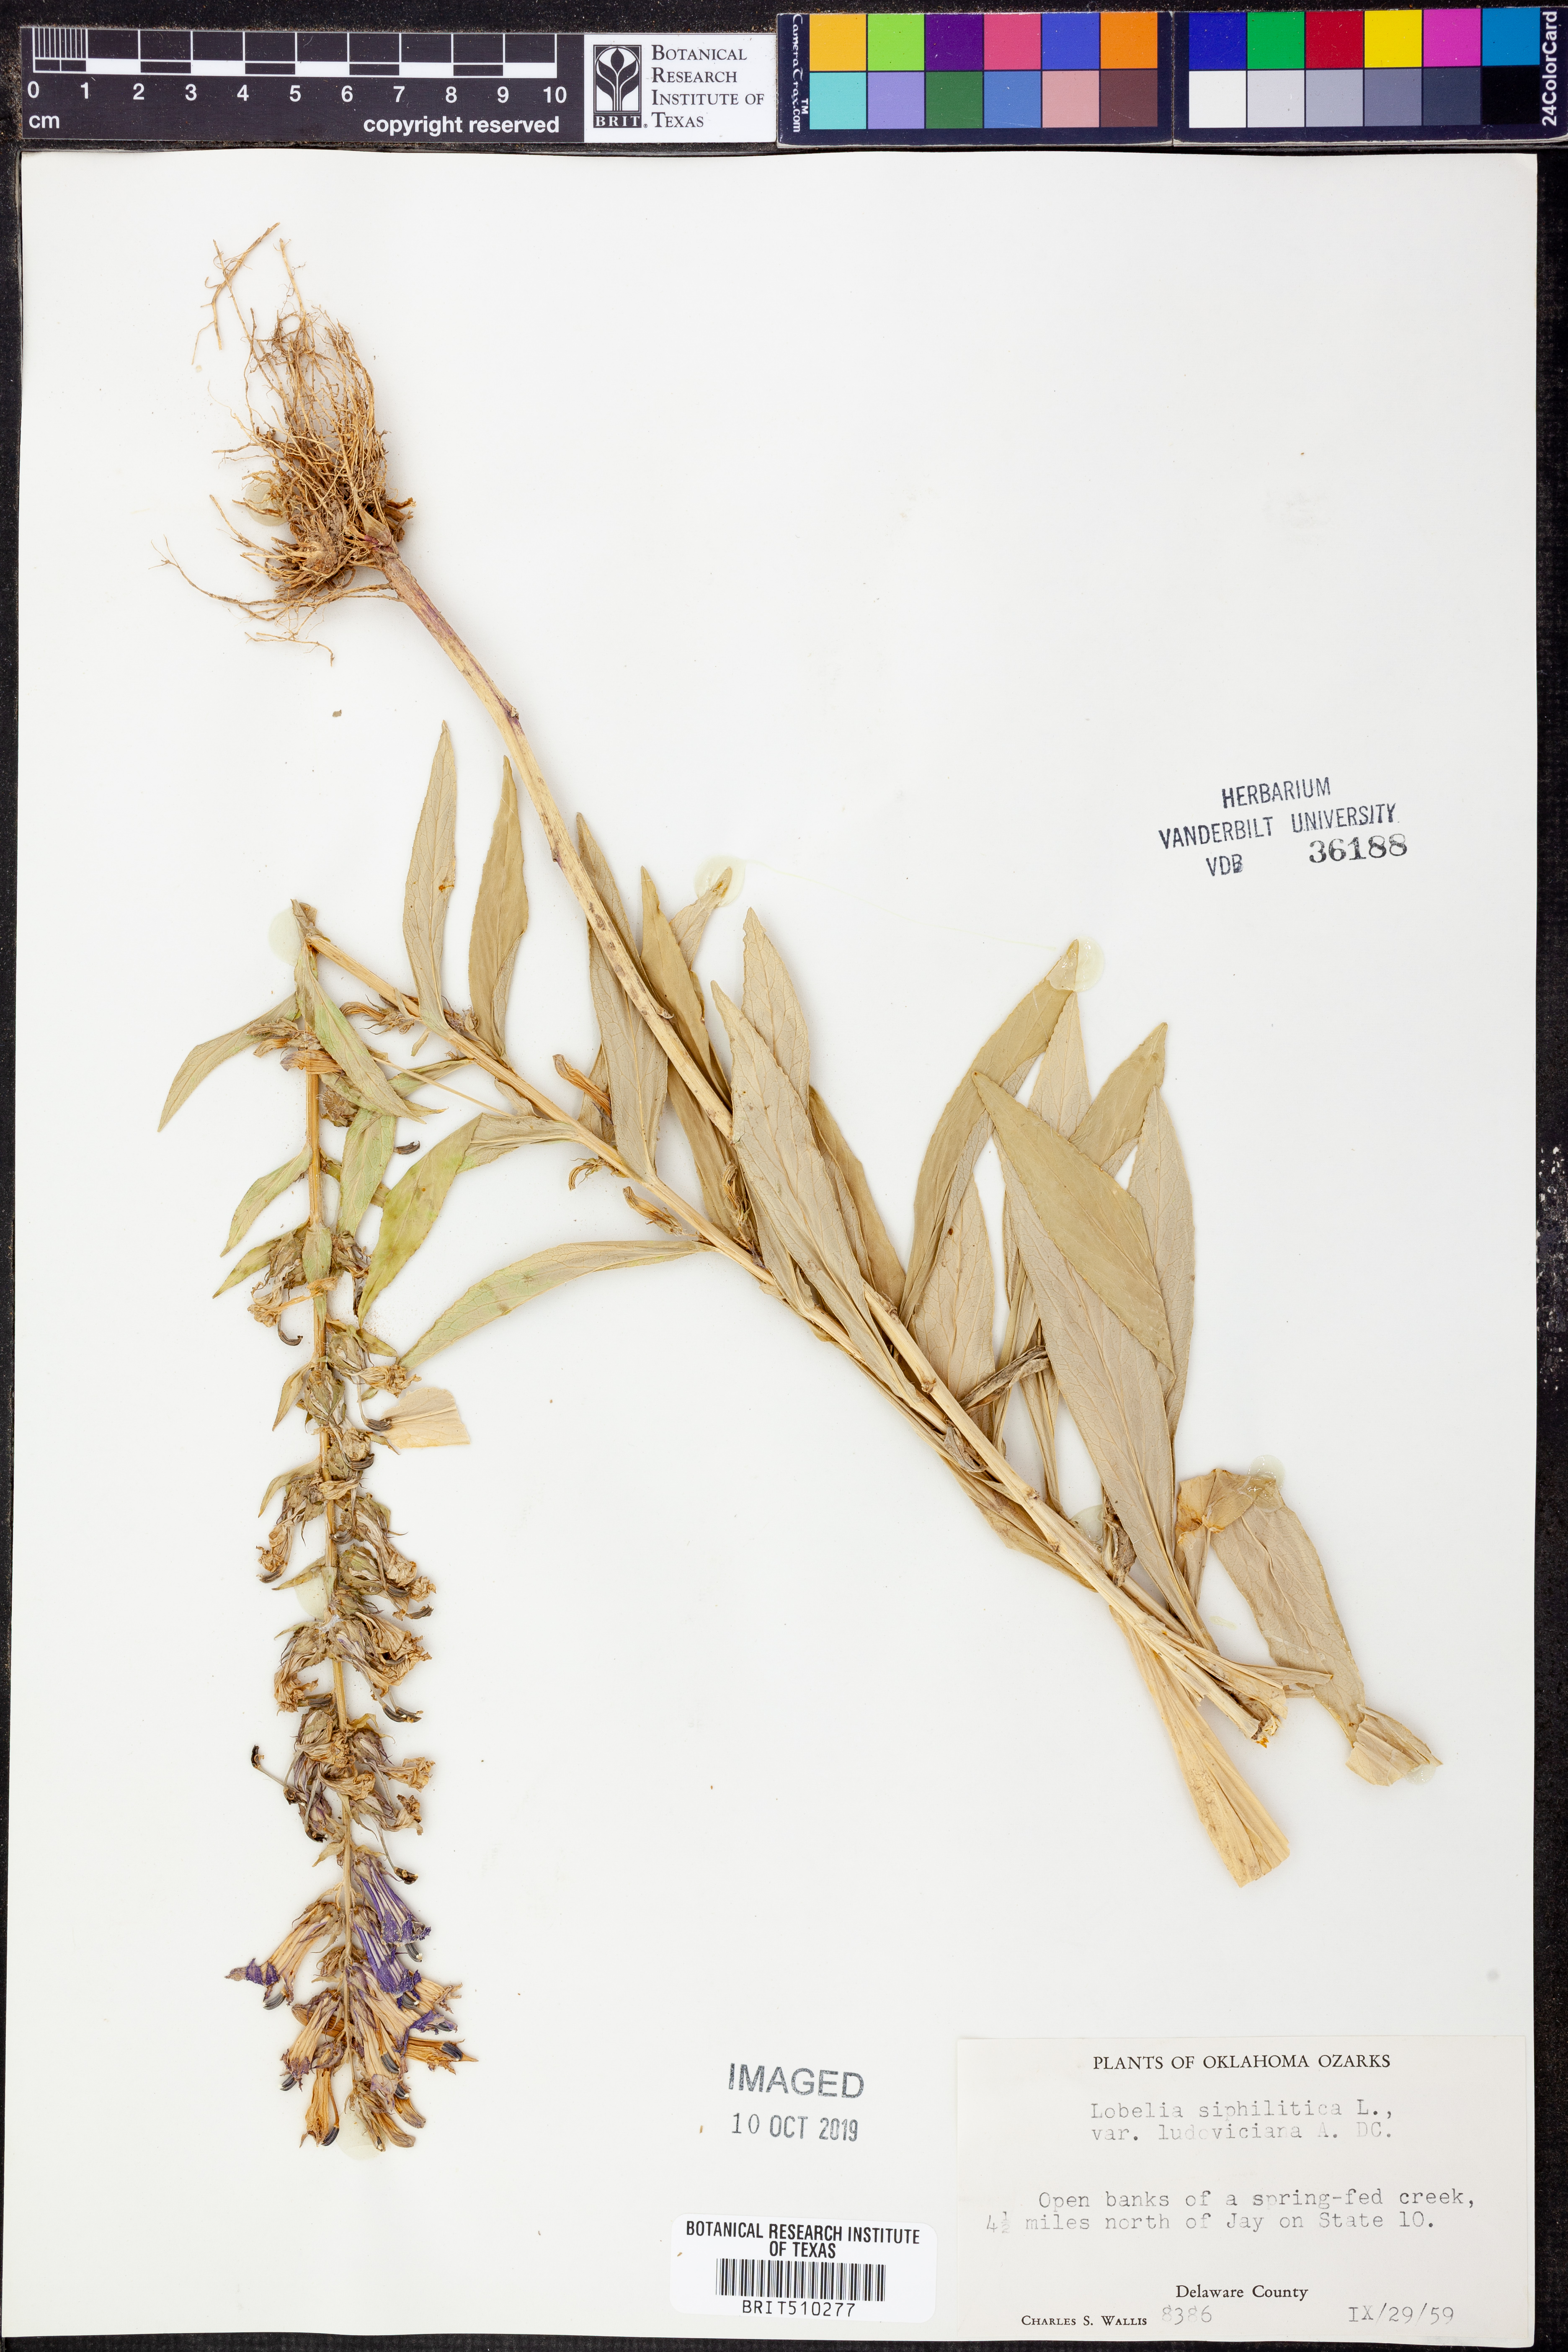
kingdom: Plantae
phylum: Tracheophyta
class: Magnoliopsida
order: Asterales
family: Campanulaceae
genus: Lobelia
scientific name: Lobelia siphilitica
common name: Great lobelia
